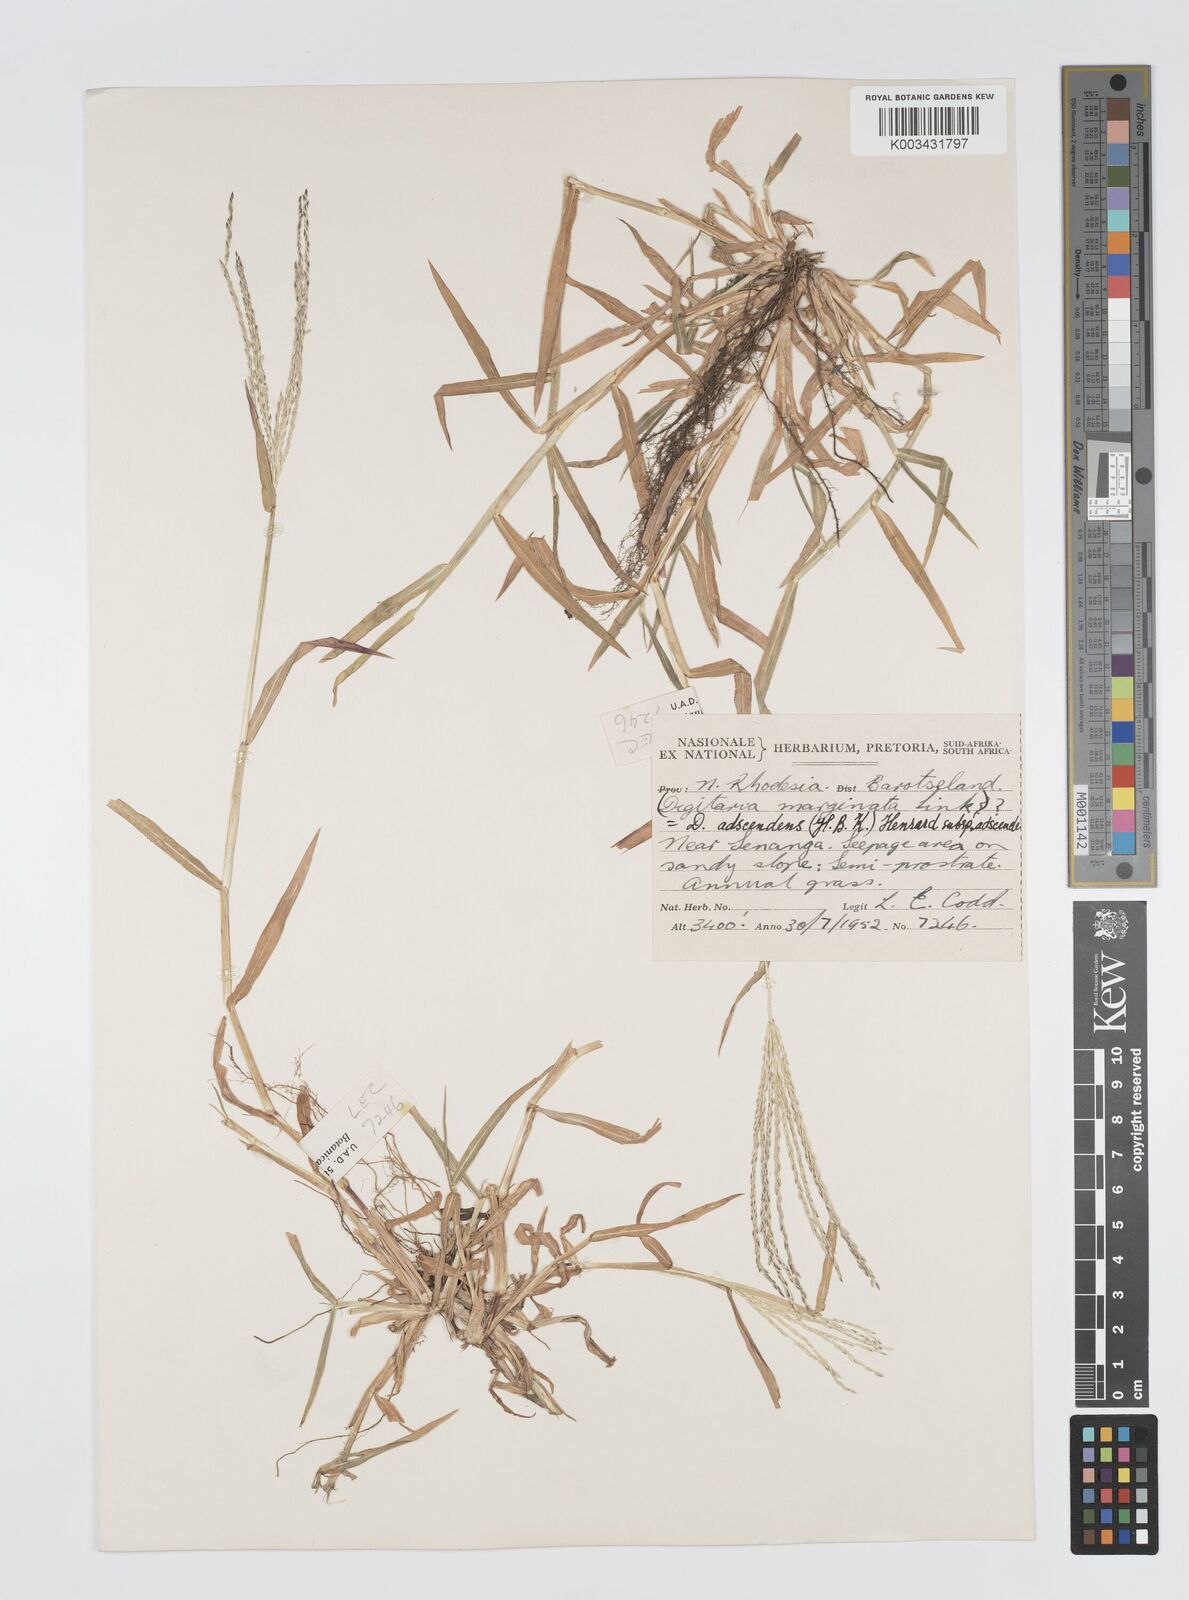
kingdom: Plantae
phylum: Tracheophyta
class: Liliopsida
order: Poales
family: Poaceae
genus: Digitaria
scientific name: Digitaria nuda
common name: Naked crabgrass
